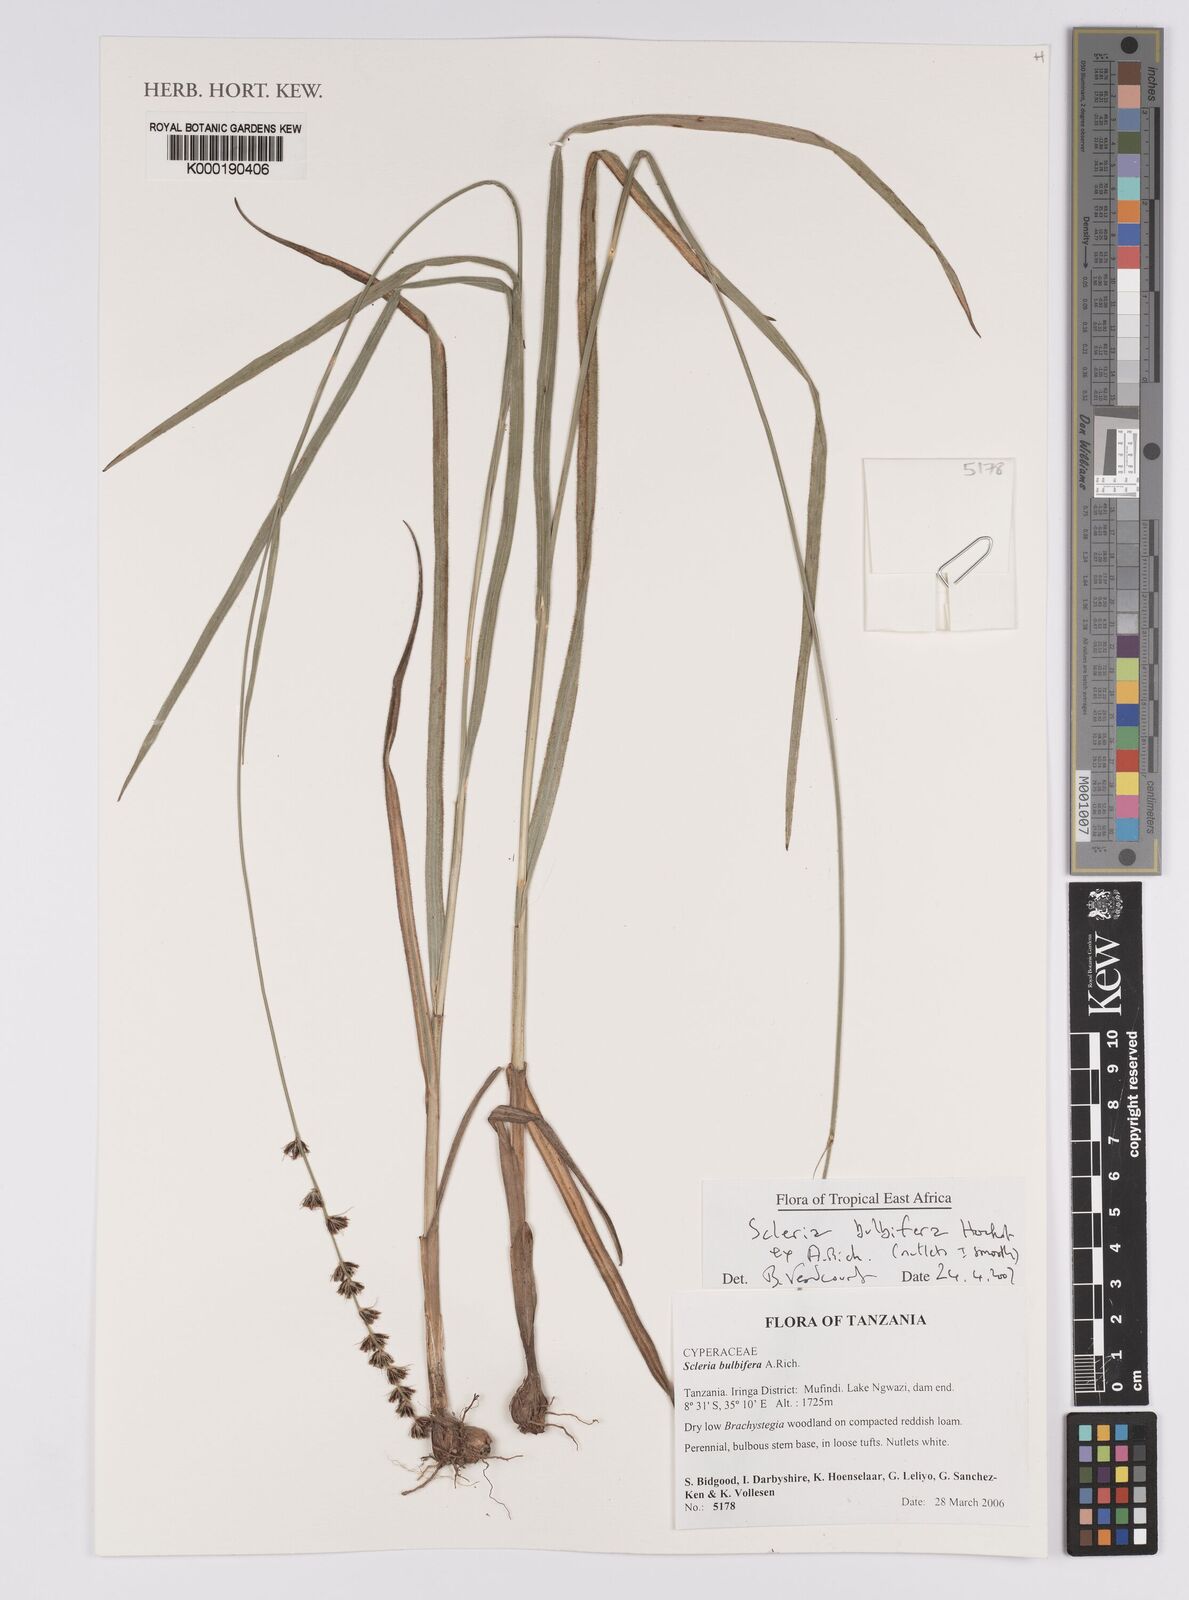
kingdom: Plantae
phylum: Tracheophyta
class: Liliopsida
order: Poales
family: Cyperaceae
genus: Scleria
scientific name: Scleria bulbifera
